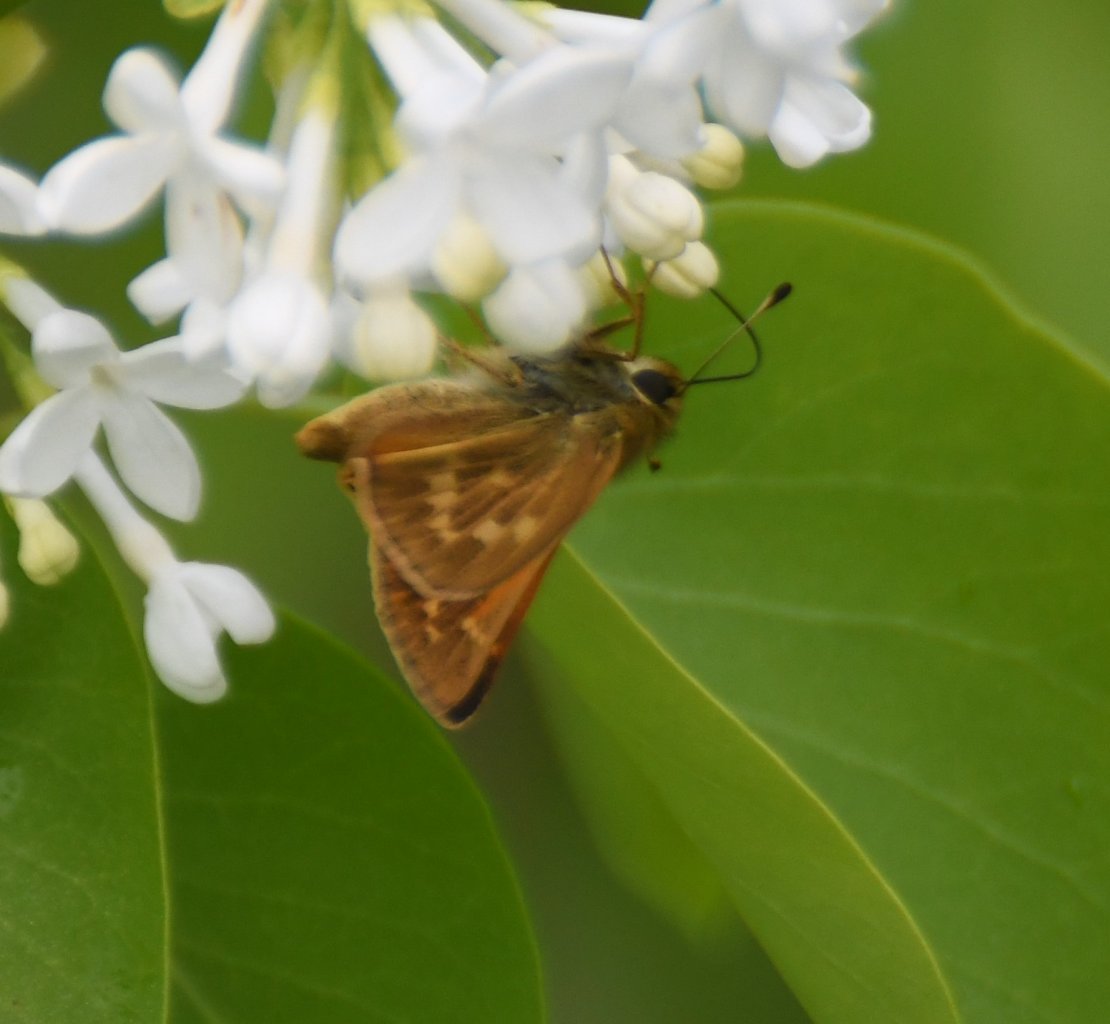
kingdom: Animalia
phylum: Arthropoda
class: Insecta
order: Lepidoptera
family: Hesperiidae
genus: Hesperia
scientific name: Hesperia sassacus
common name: Sassacus Skipper
